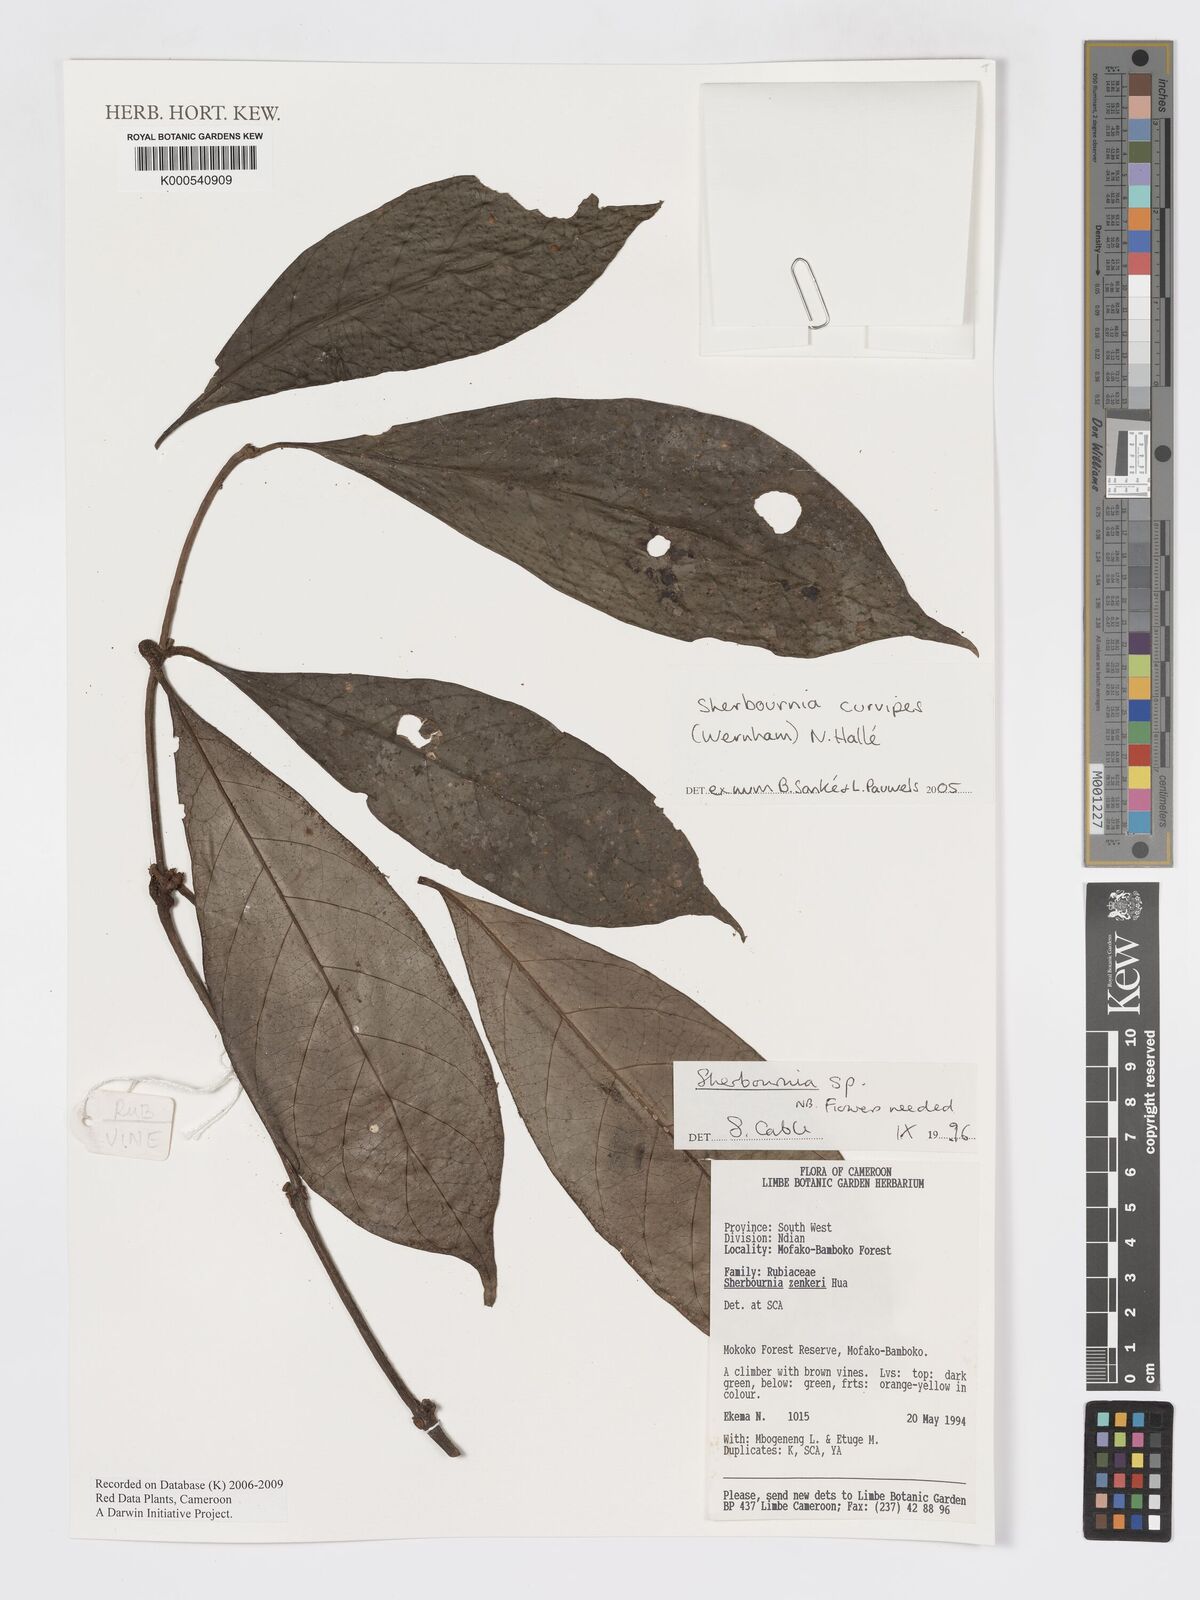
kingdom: Plantae
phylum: Tracheophyta
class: Magnoliopsida
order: Gentianales
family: Rubiaceae
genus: Sherbournia
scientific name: Sherbournia
